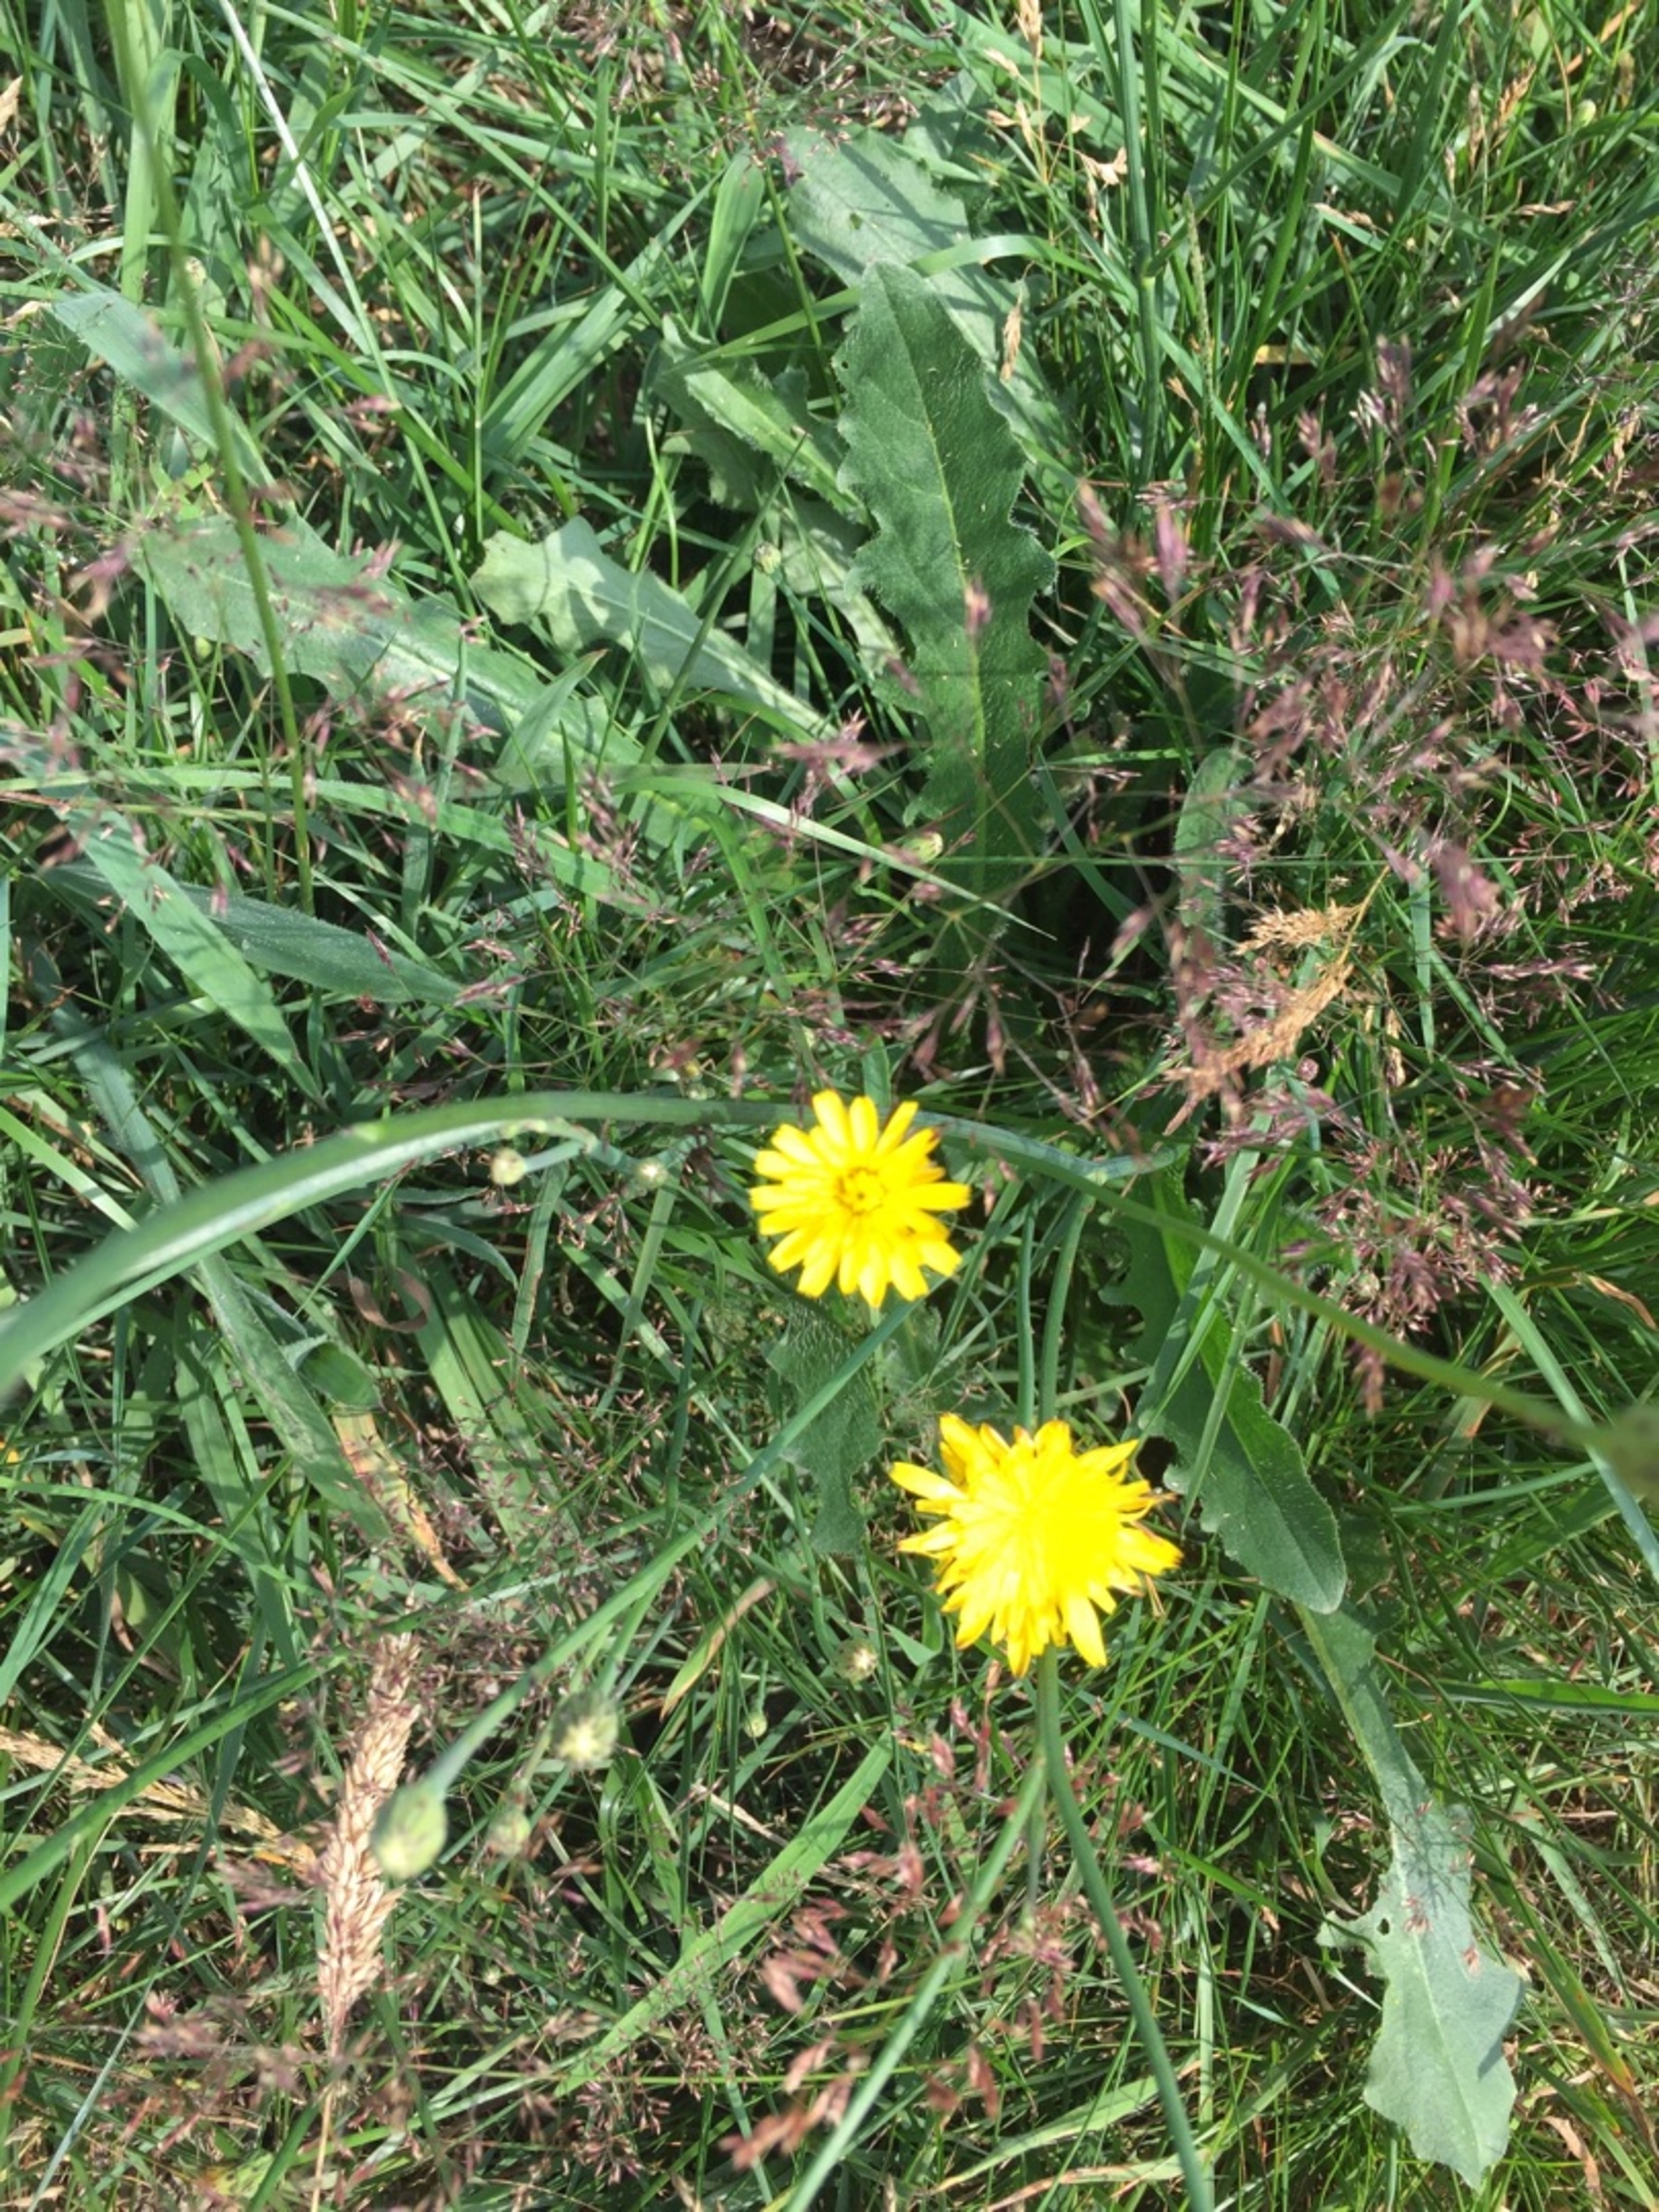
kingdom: Plantae
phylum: Tracheophyta
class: Magnoliopsida
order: Asterales
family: Asteraceae
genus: Hypochaeris
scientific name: Hypochaeris radicata
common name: Almindelig kongepen
